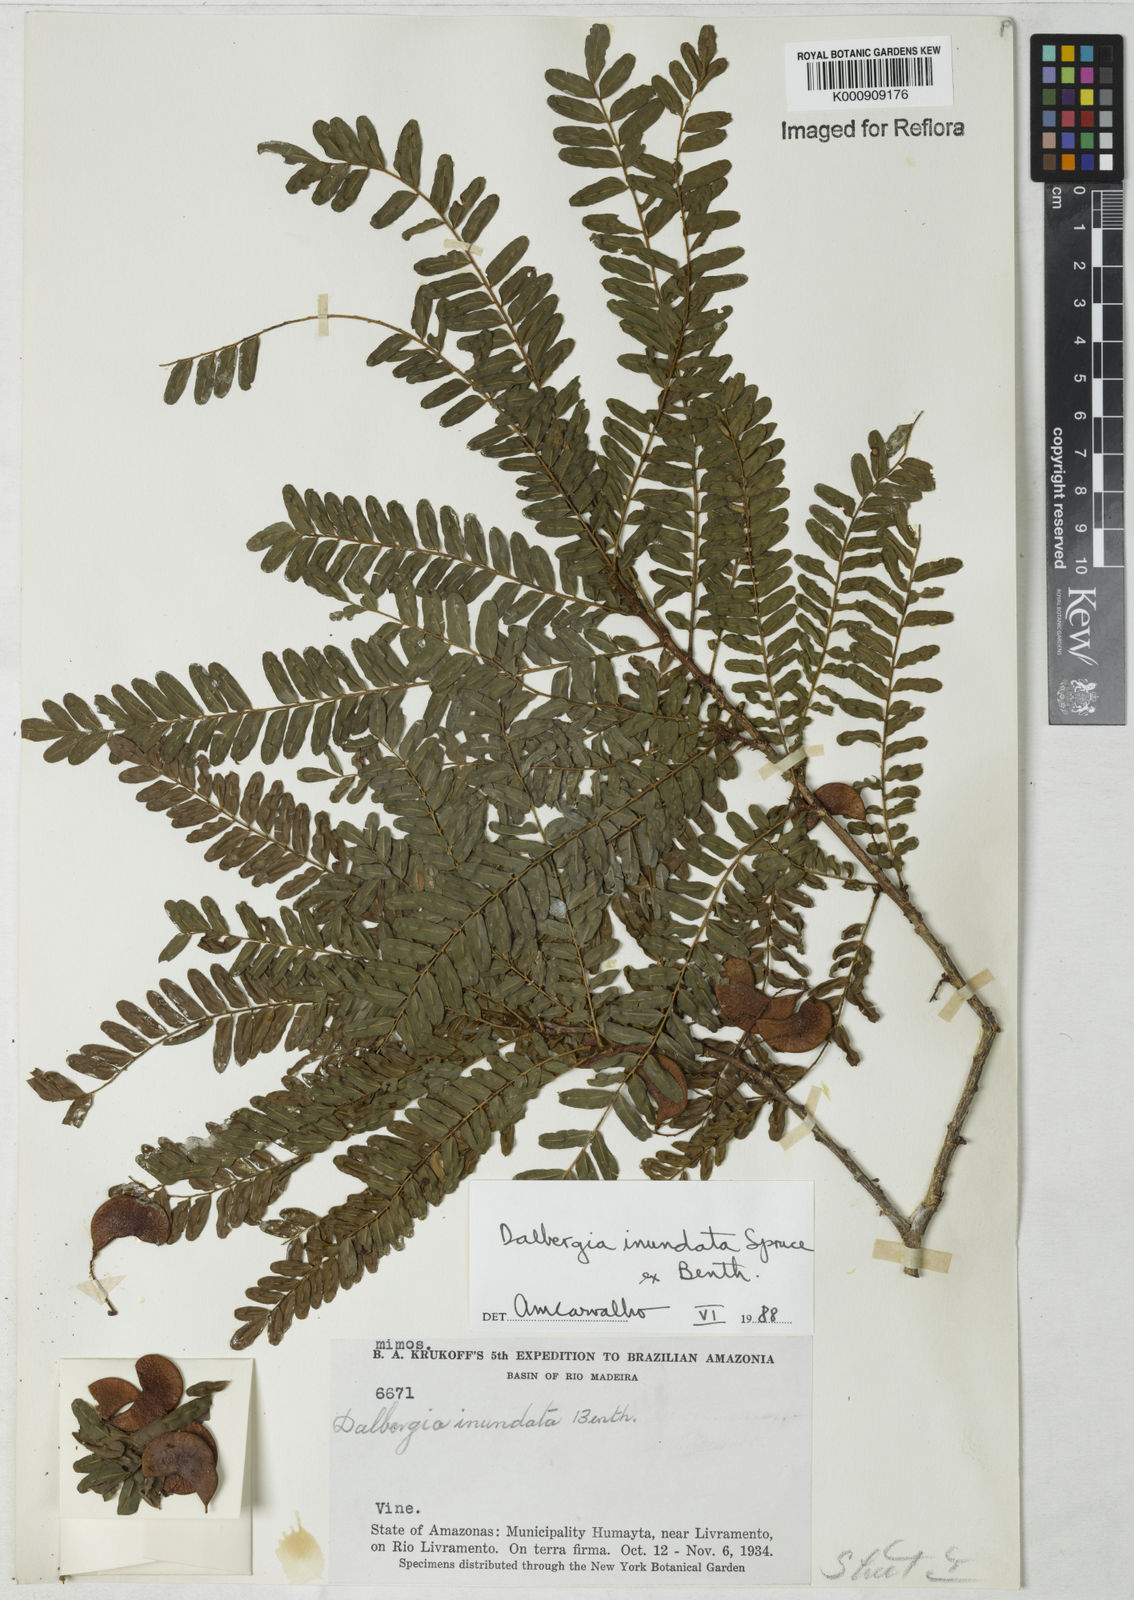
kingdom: Plantae
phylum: Tracheophyta
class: Magnoliopsida
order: Fabales
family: Fabaceae
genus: Dalbergia
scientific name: Dalbergia inundata
